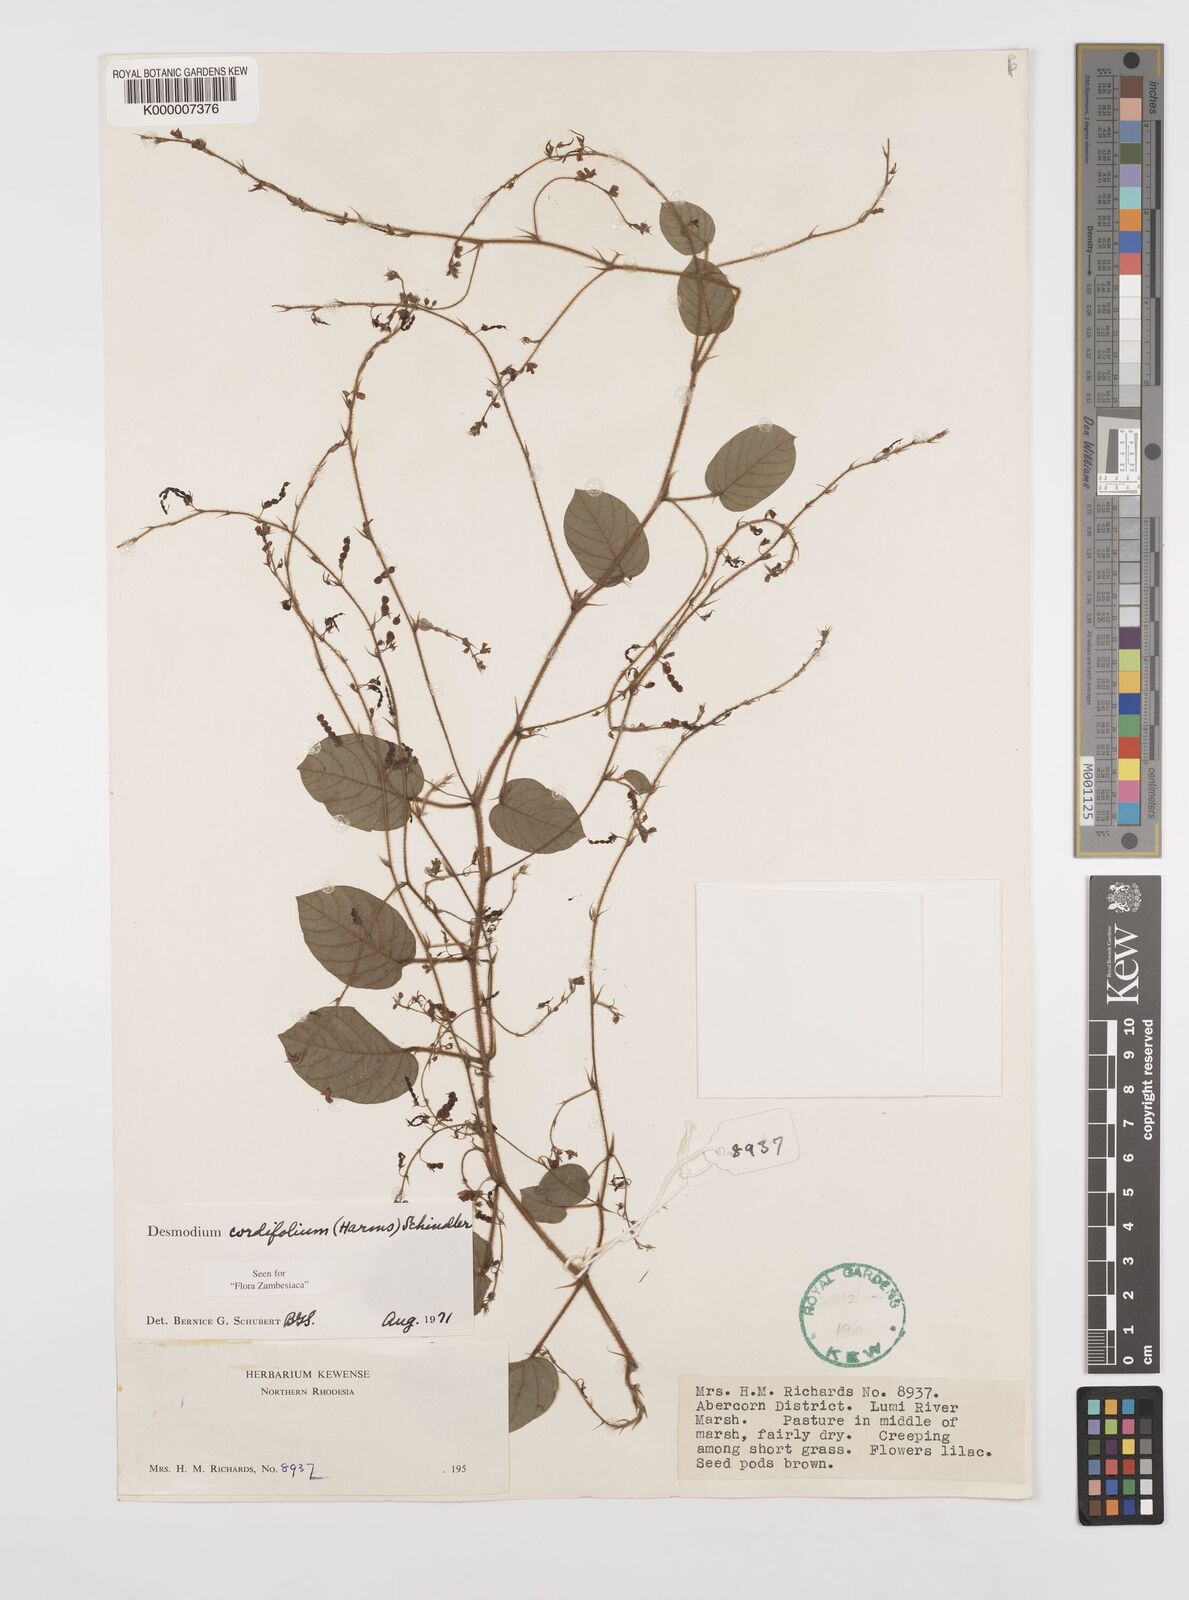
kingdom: Plantae
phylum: Tracheophyta
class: Magnoliopsida
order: Fabales
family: Fabaceae
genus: Grona
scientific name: Grona cordifolia
